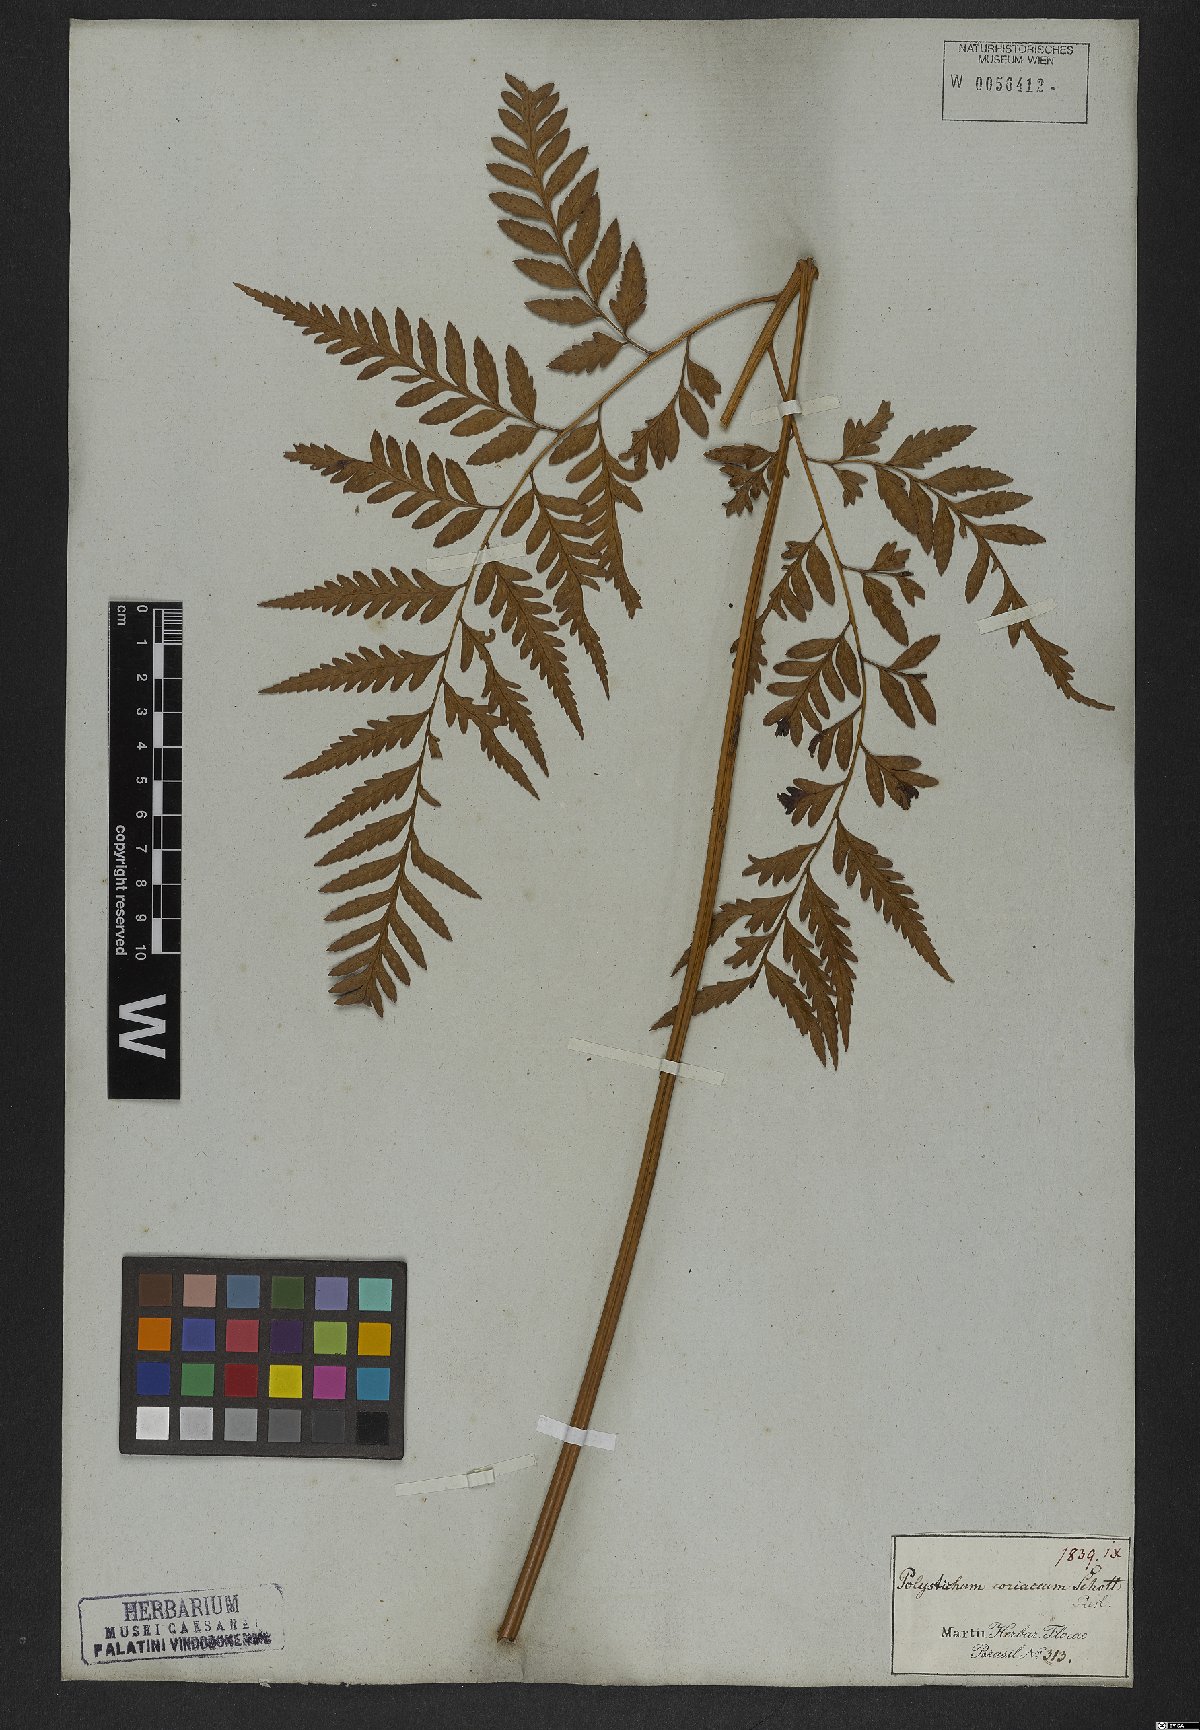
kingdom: Plantae
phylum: Tracheophyta
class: Polypodiopsida
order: Polypodiales
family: Dryopteridaceae
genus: Rumohra
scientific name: Rumohra adiantiformis
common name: Leather fern
